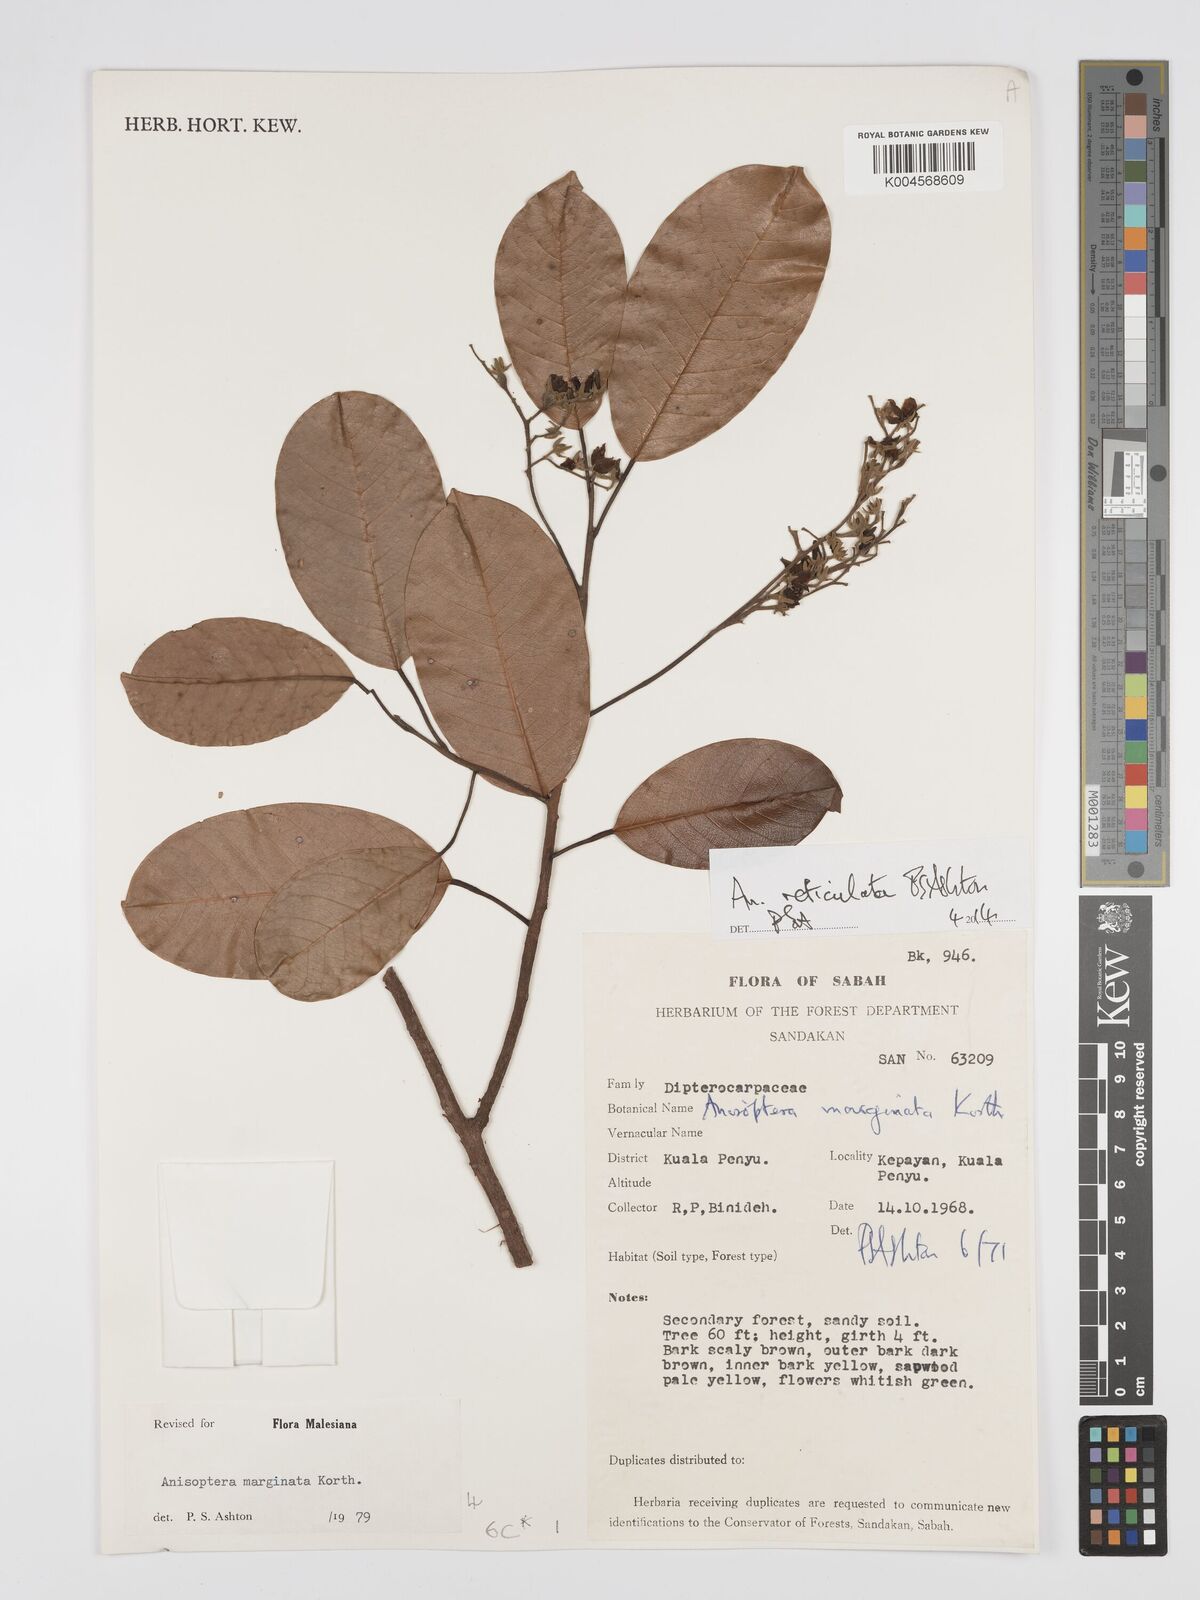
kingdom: Plantae
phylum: Tracheophyta
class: Magnoliopsida
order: Malvales
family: Dipterocarpaceae
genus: Anisoptera
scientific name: Anisoptera marginata
